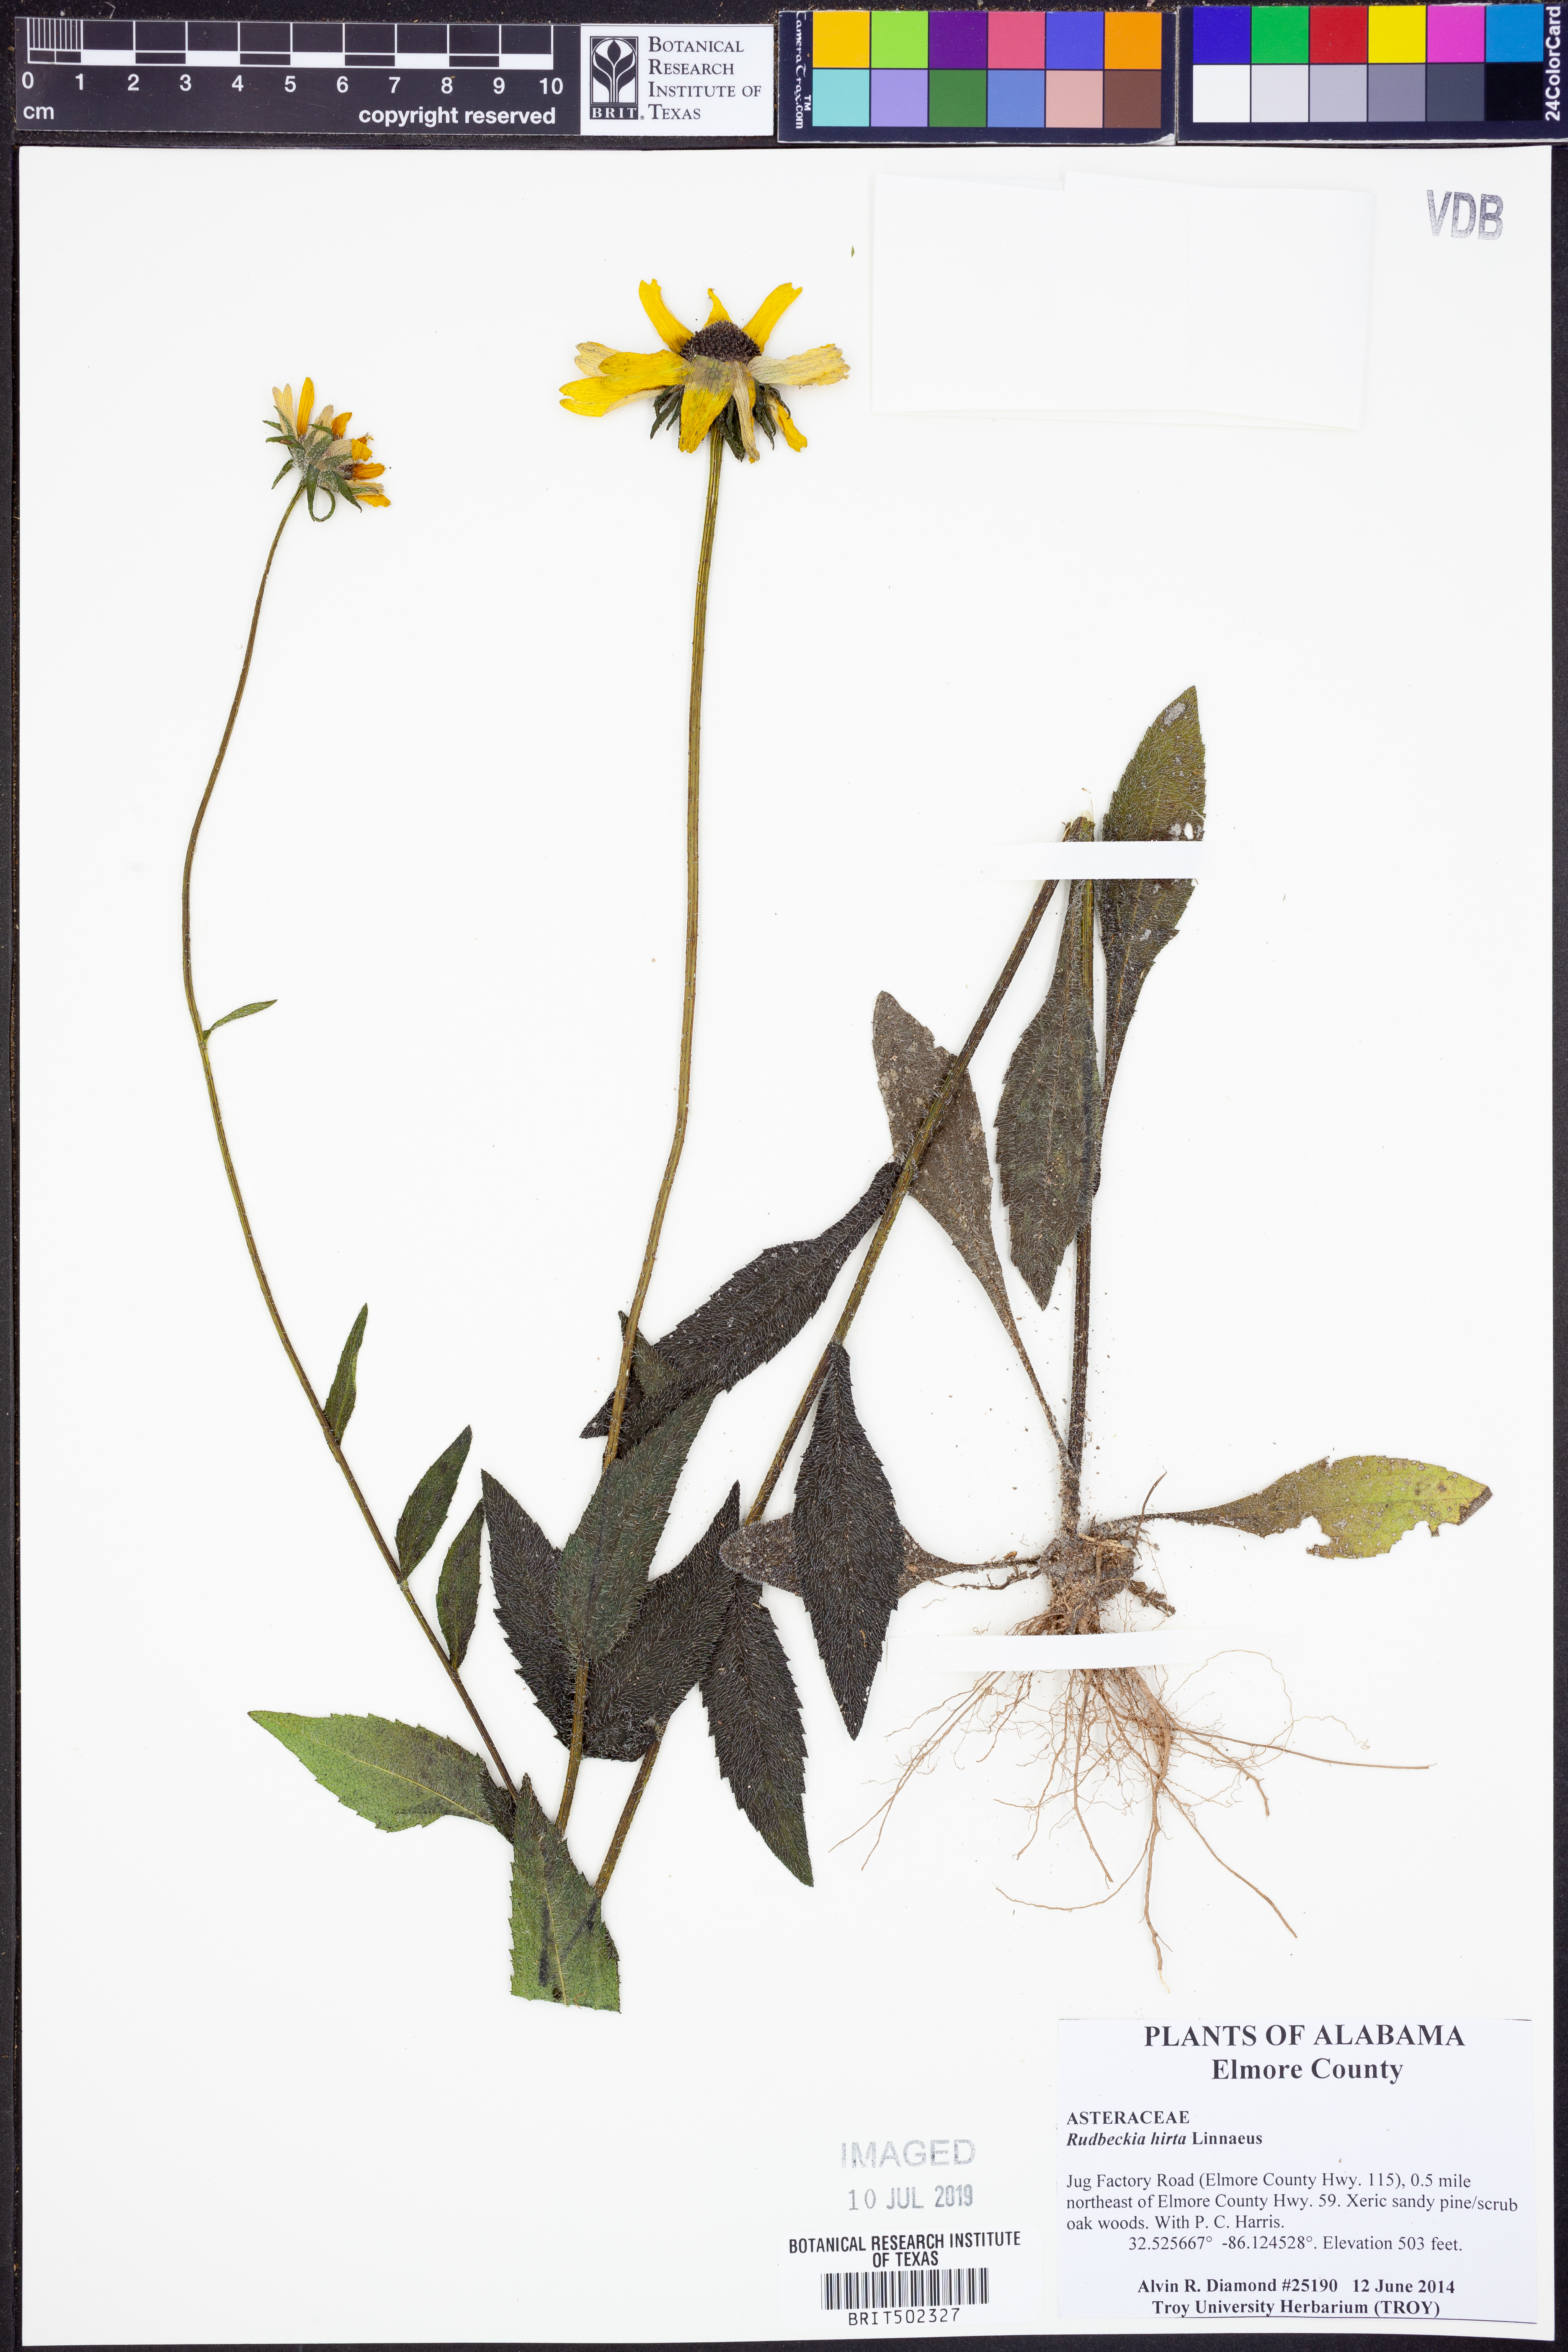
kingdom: Plantae
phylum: Tracheophyta
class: Magnoliopsida
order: Asterales
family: Asteraceae
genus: Rudbeckia
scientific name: Rudbeckia hirta
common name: Black-eyed-susan
